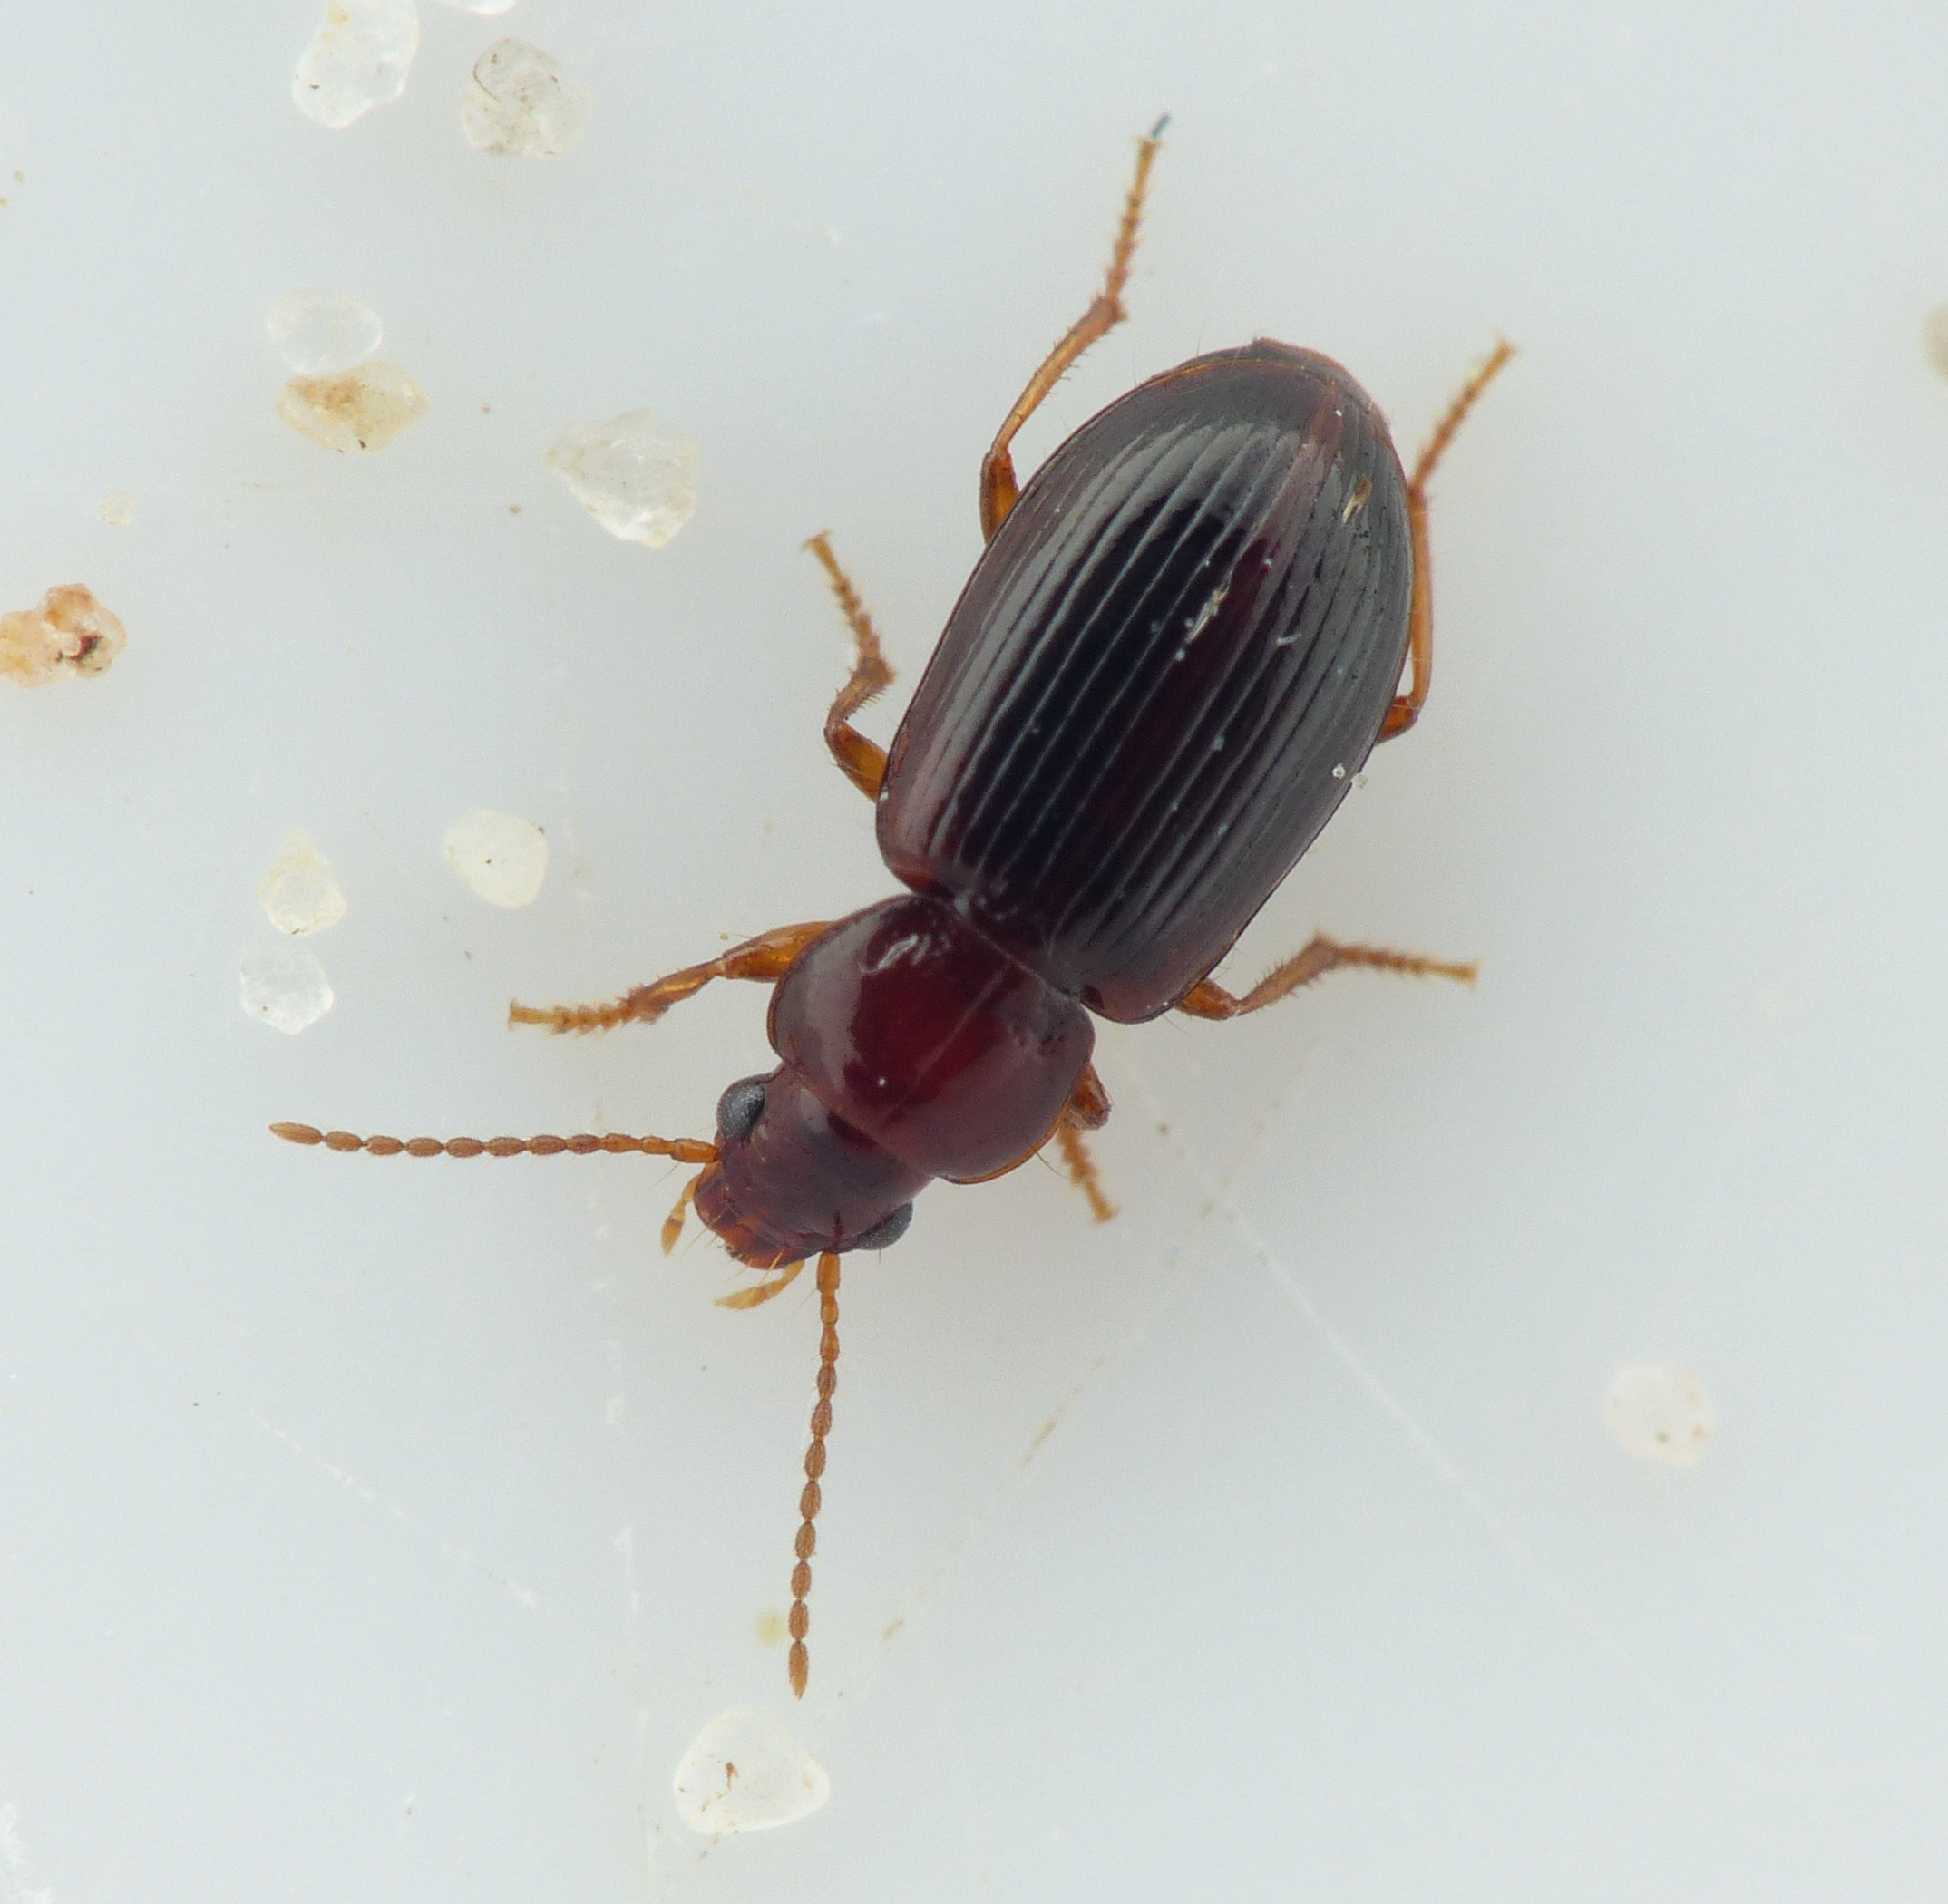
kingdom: Animalia
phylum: Arthropoda
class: Insecta
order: Coleoptera
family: Carabidae
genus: Bradycellus
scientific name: Bradycellus caucasicus
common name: Hedebrunløber
